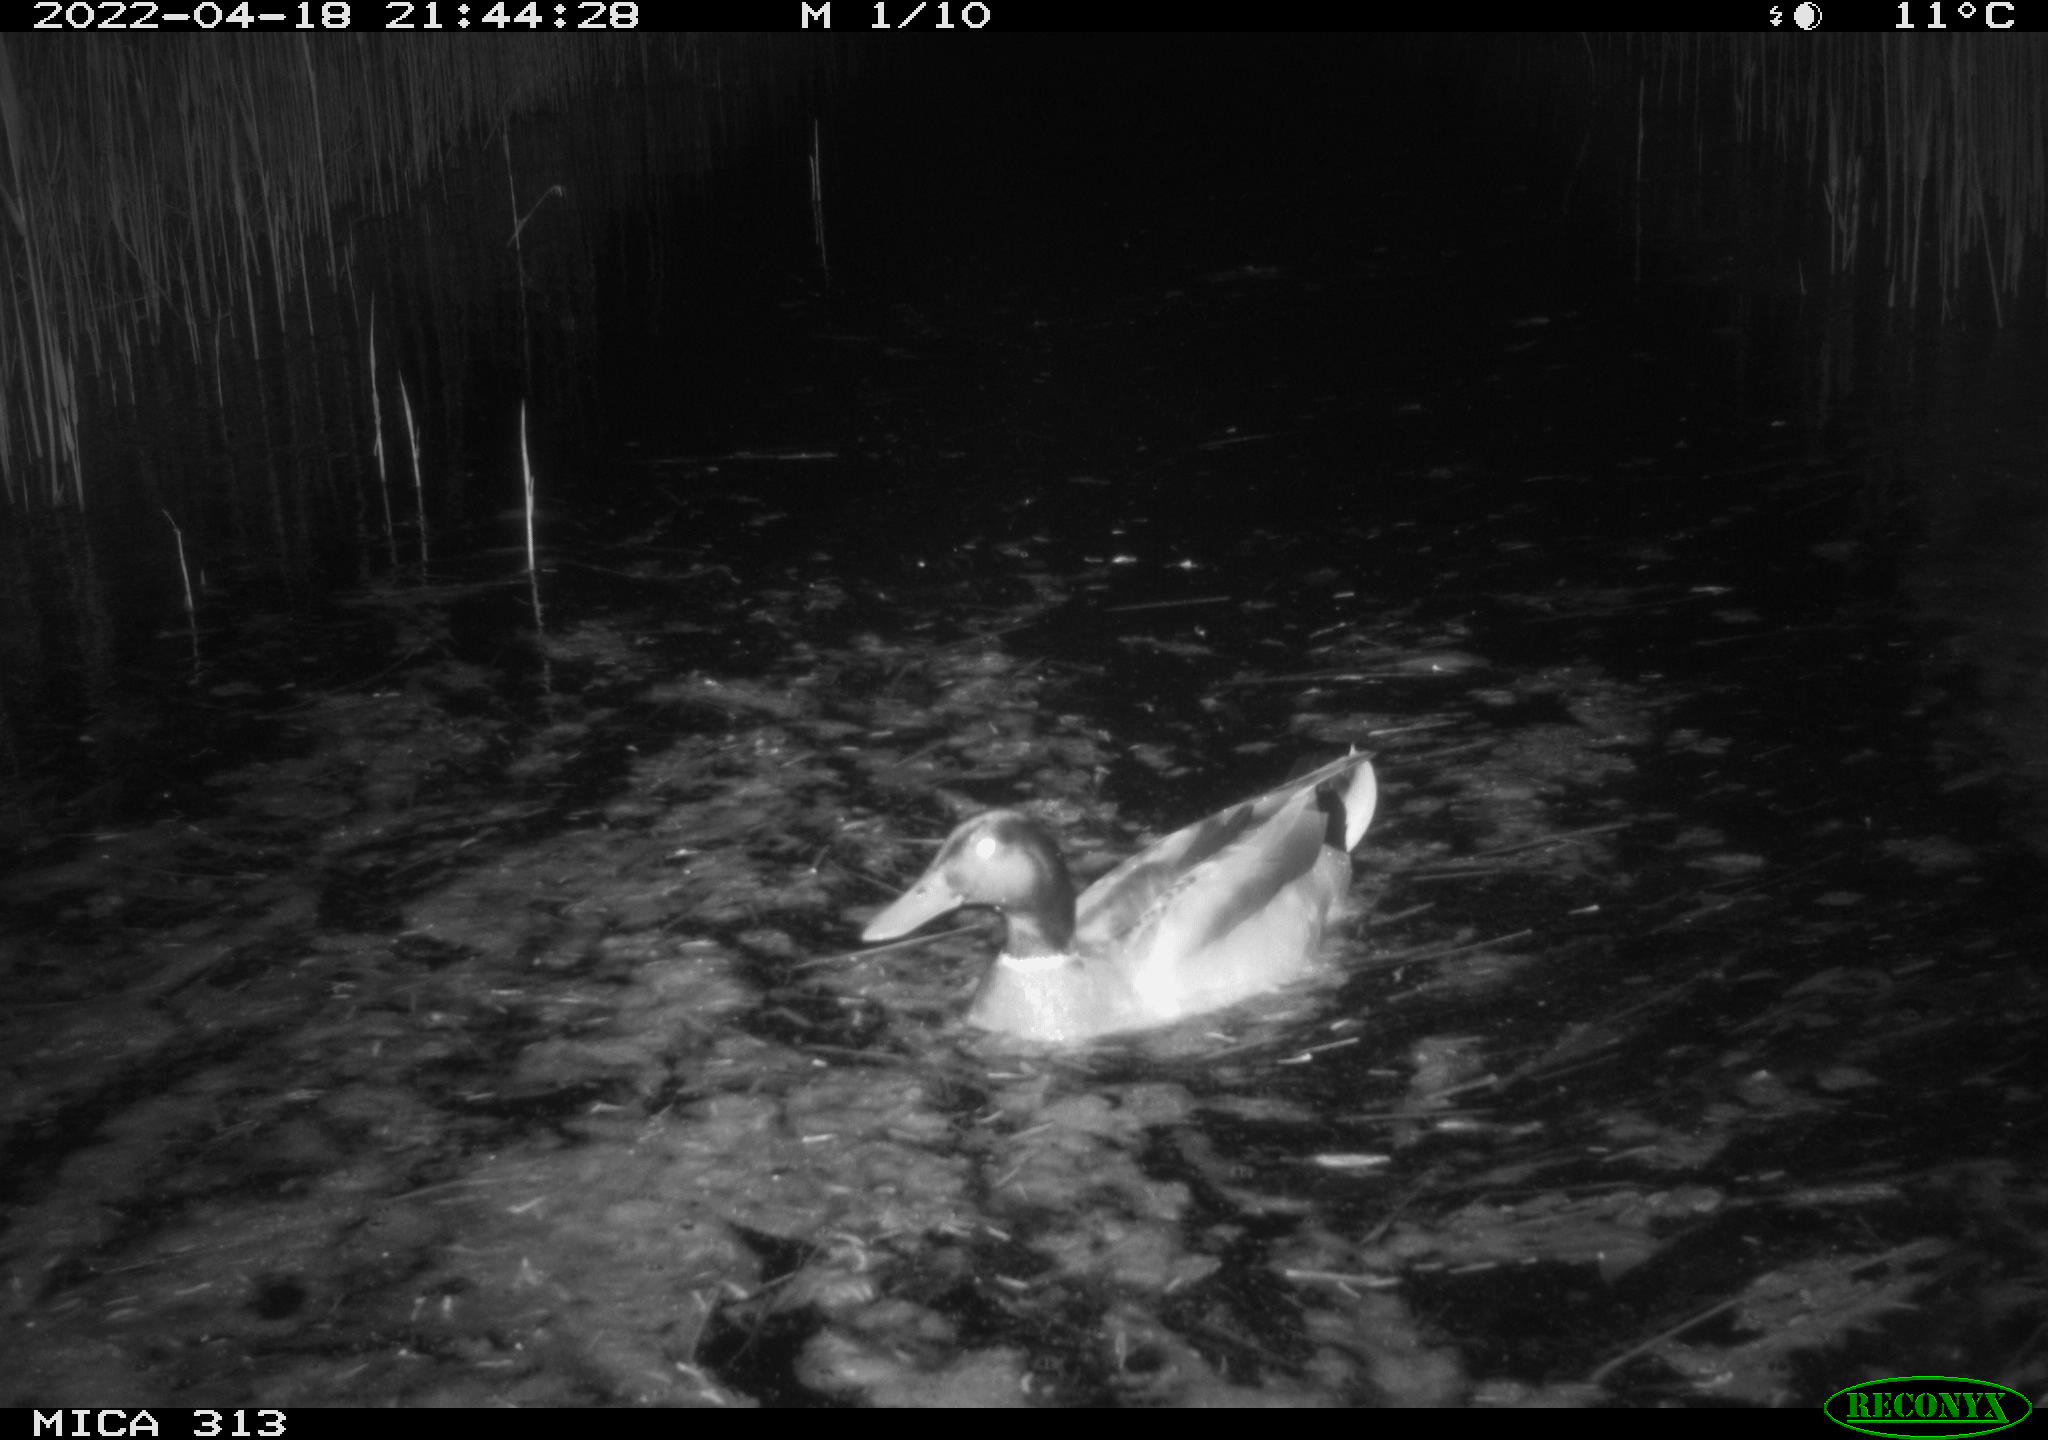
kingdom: Animalia
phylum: Chordata
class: Aves
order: Anseriformes
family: Anatidae
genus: Anas
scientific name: Anas platyrhynchos
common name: Mallard
